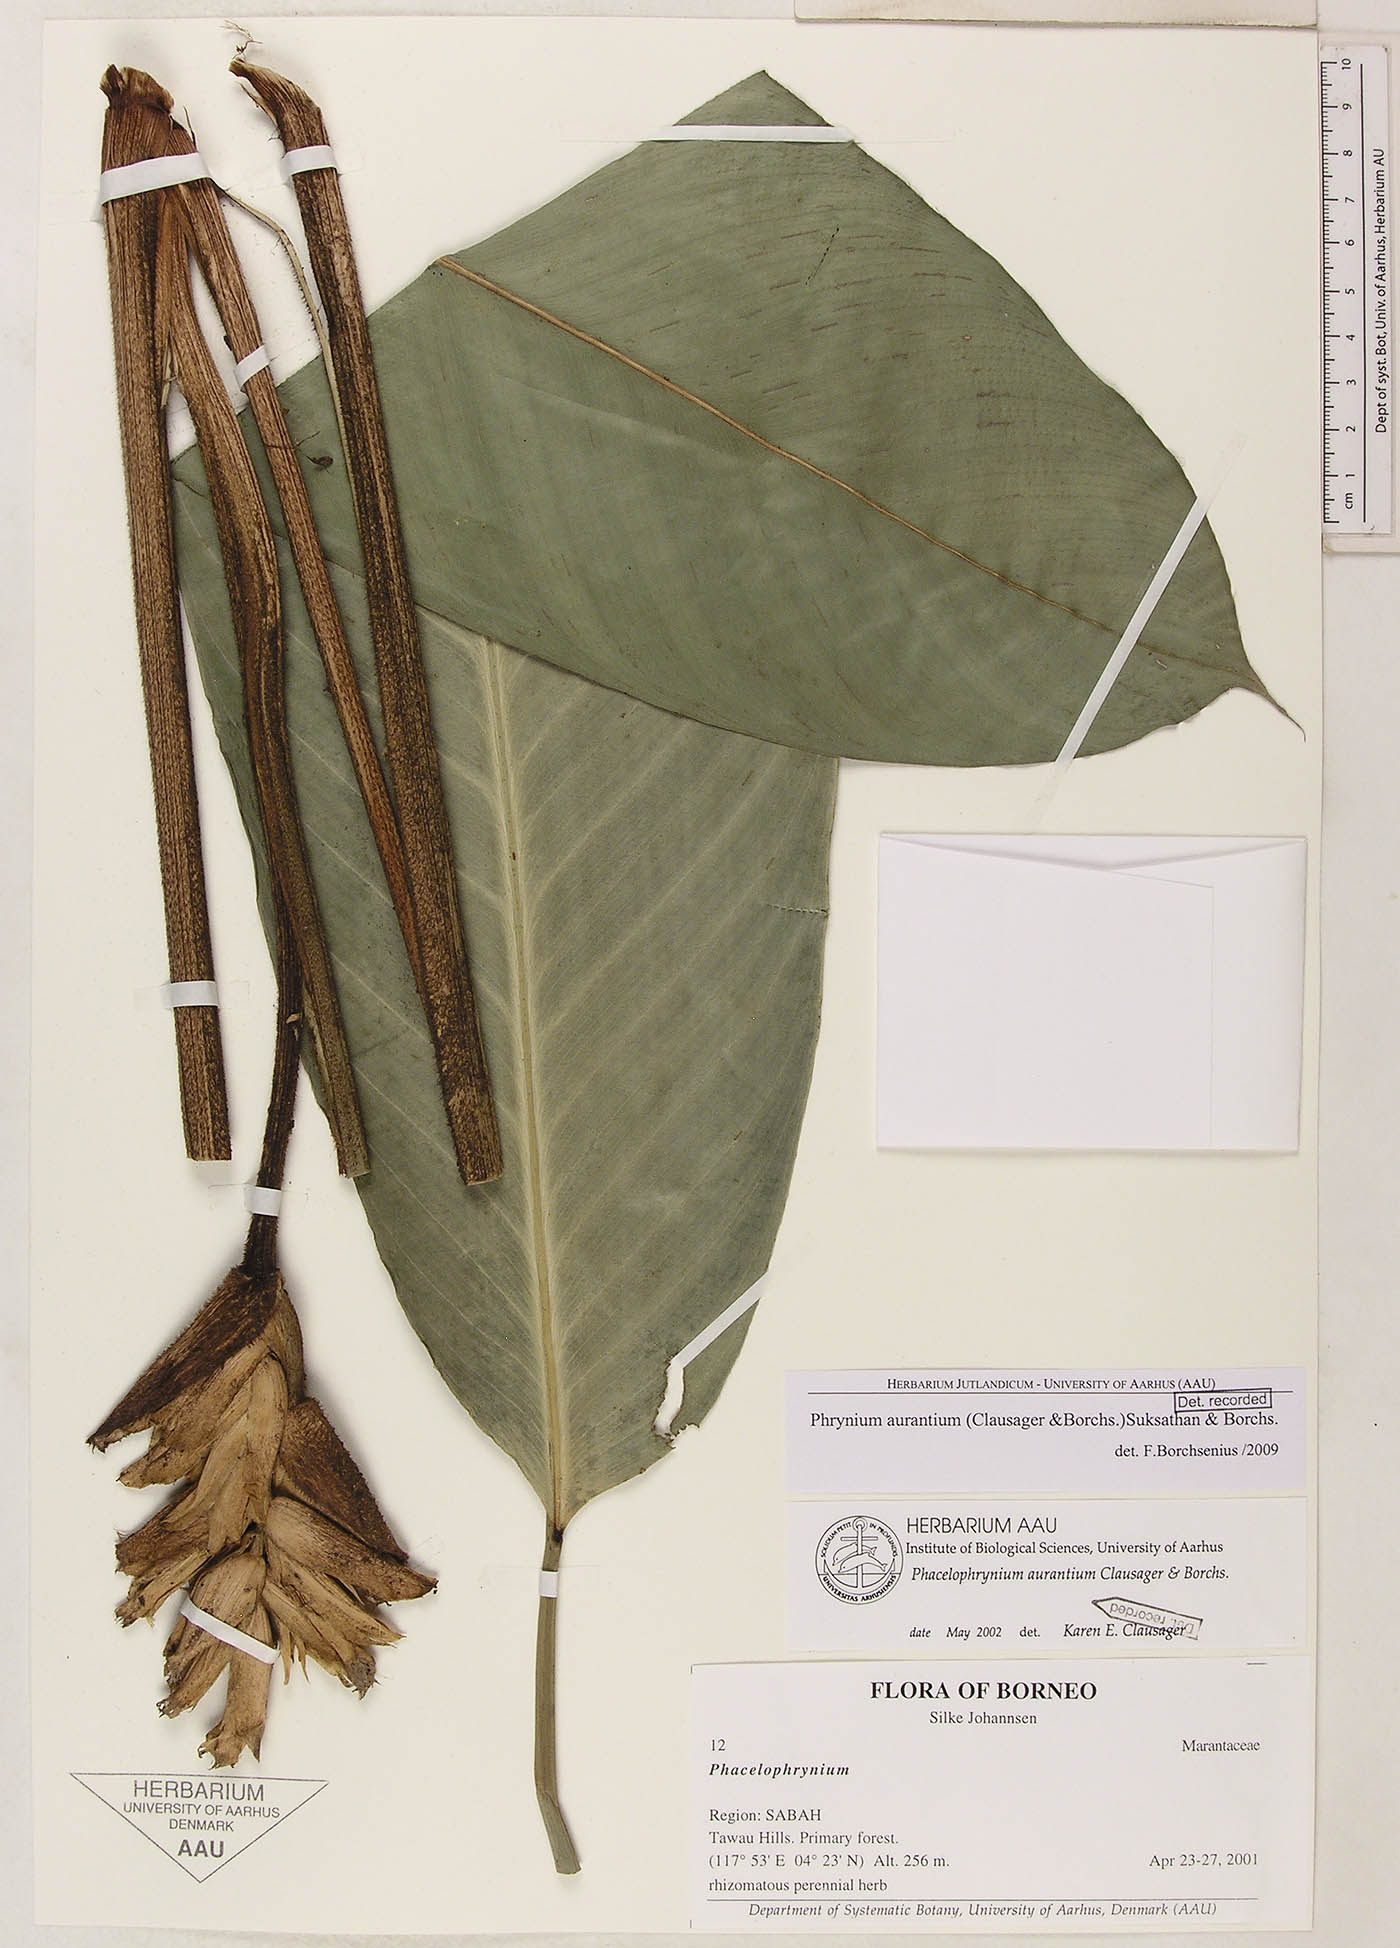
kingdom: Plantae
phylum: Tracheophyta
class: Liliopsida
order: Zingiberales
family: Marantaceae
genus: Phrynium
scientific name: Phrynium aurantium
